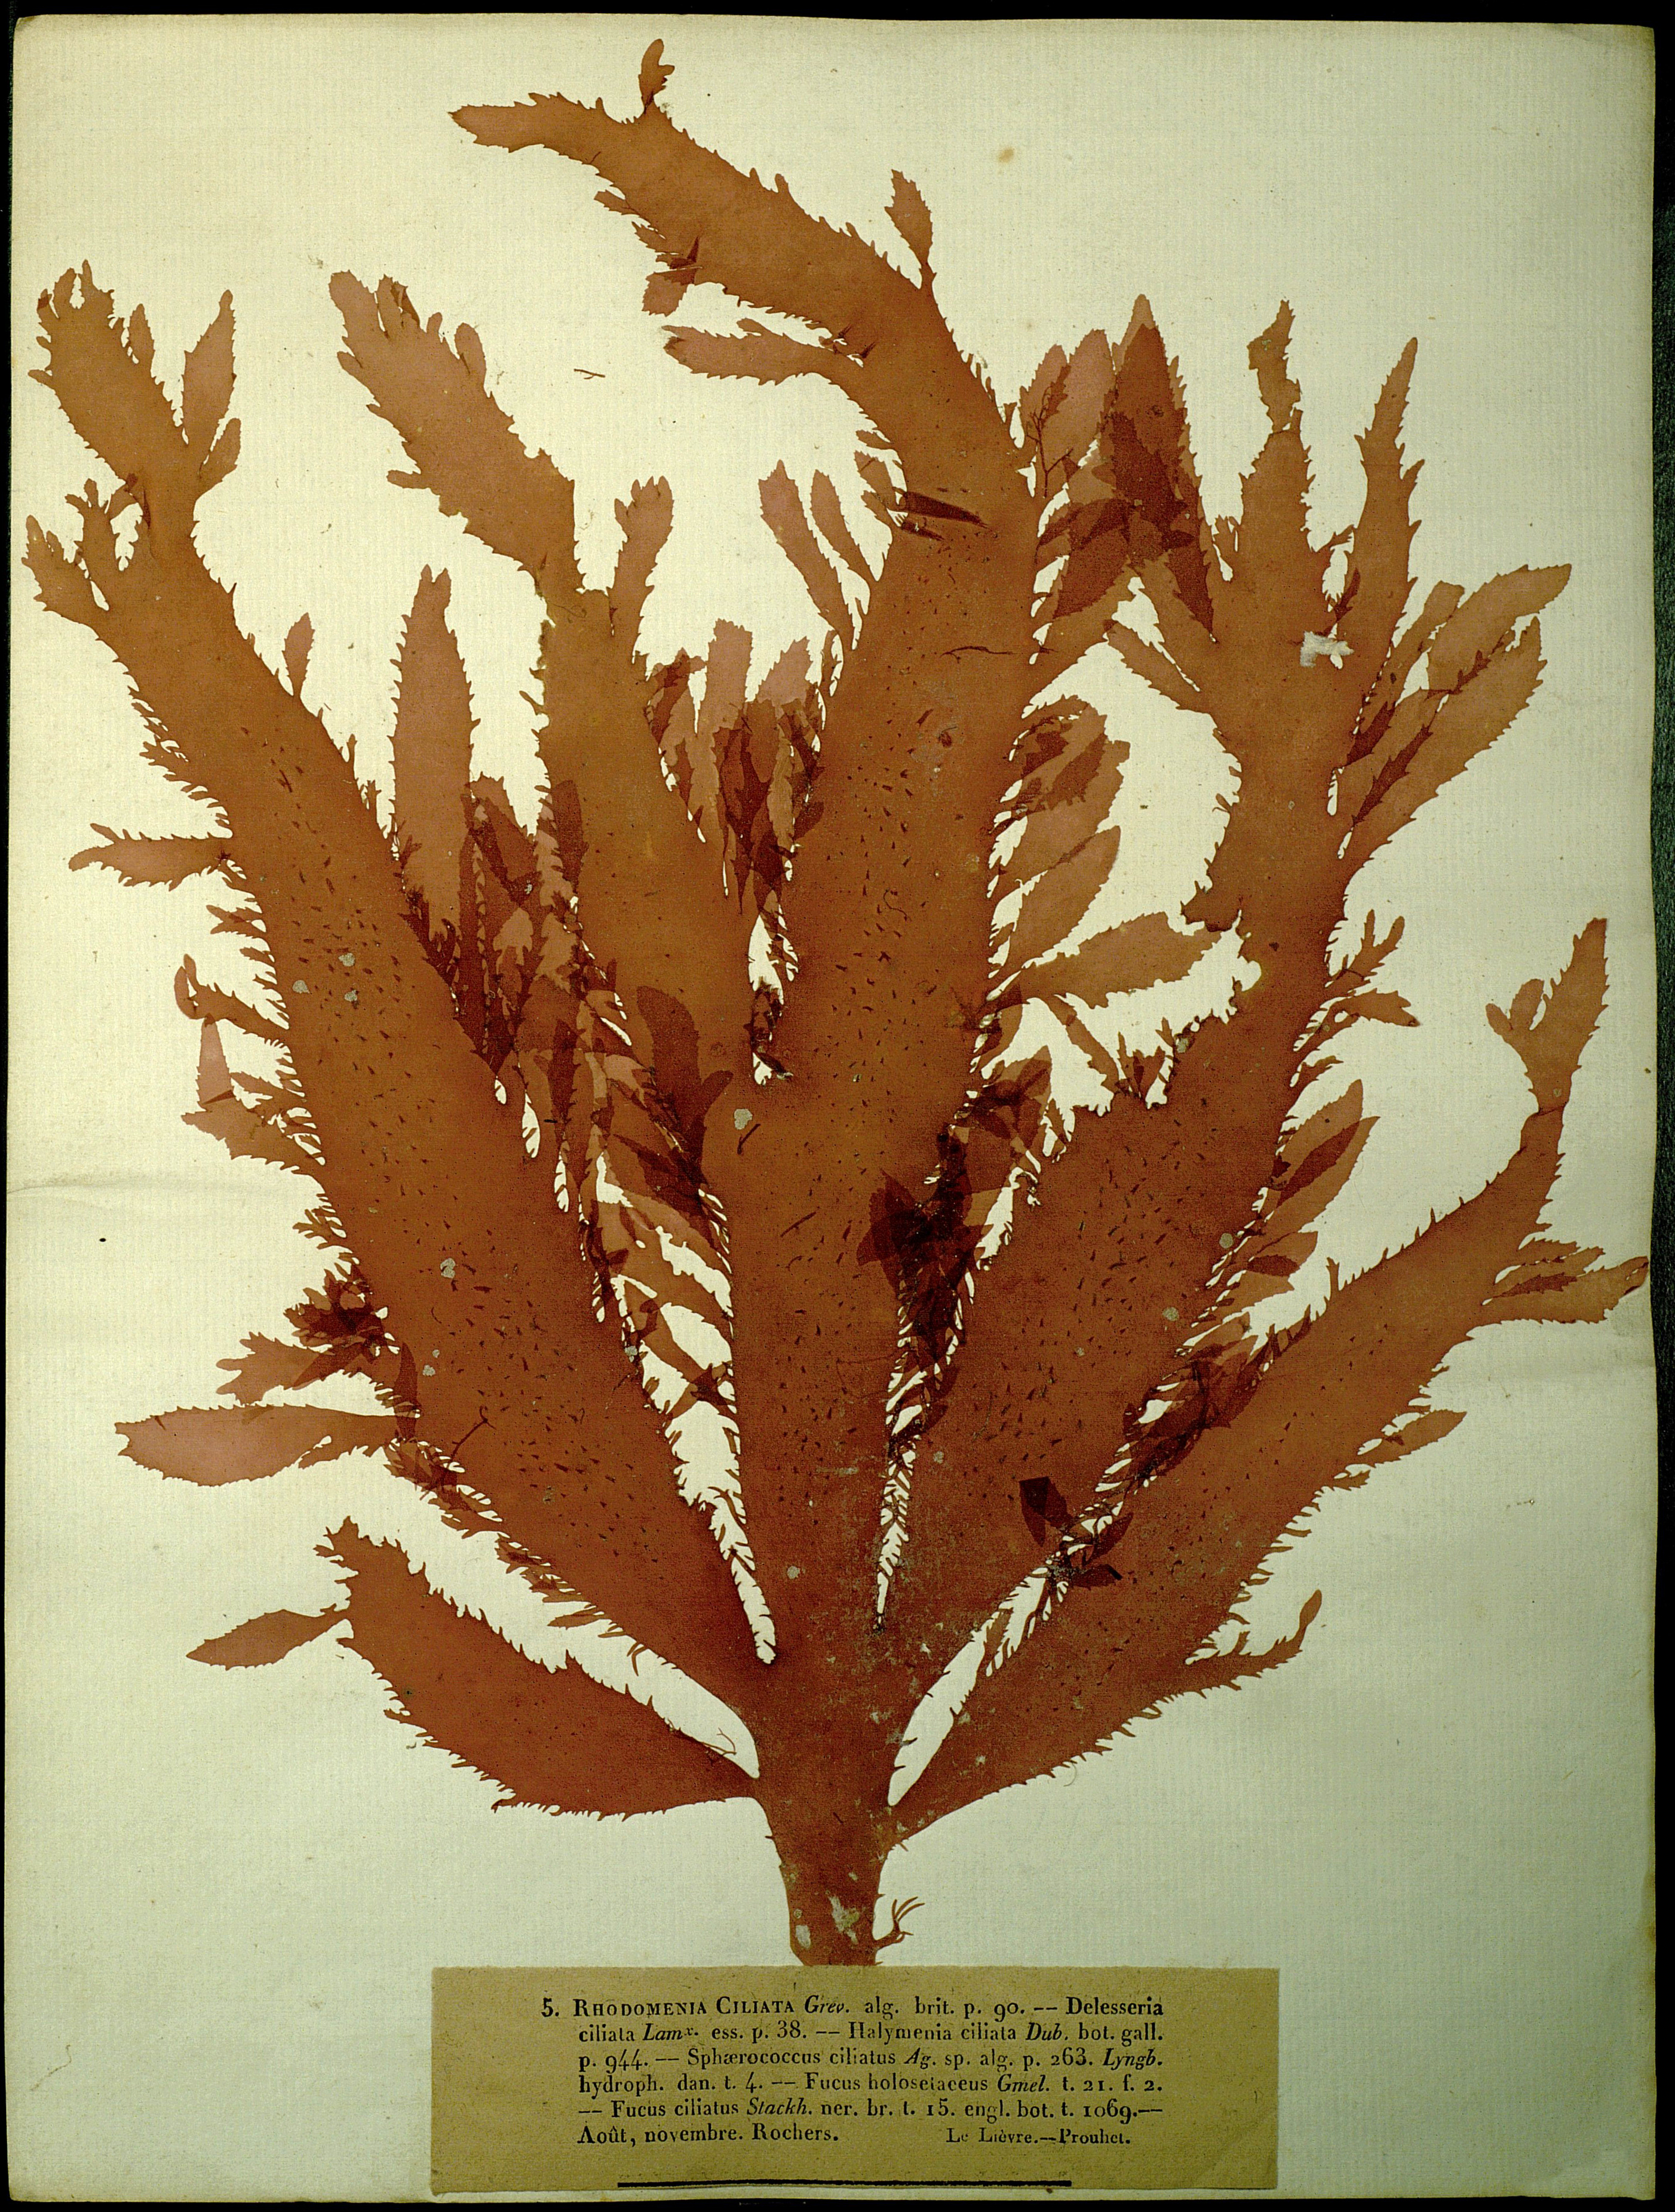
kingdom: Plantae
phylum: Rhodophyta
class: Florideophyceae
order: Gigartinales
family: Phyllophoraceae
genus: Mastocarpus
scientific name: Mastocarpus
